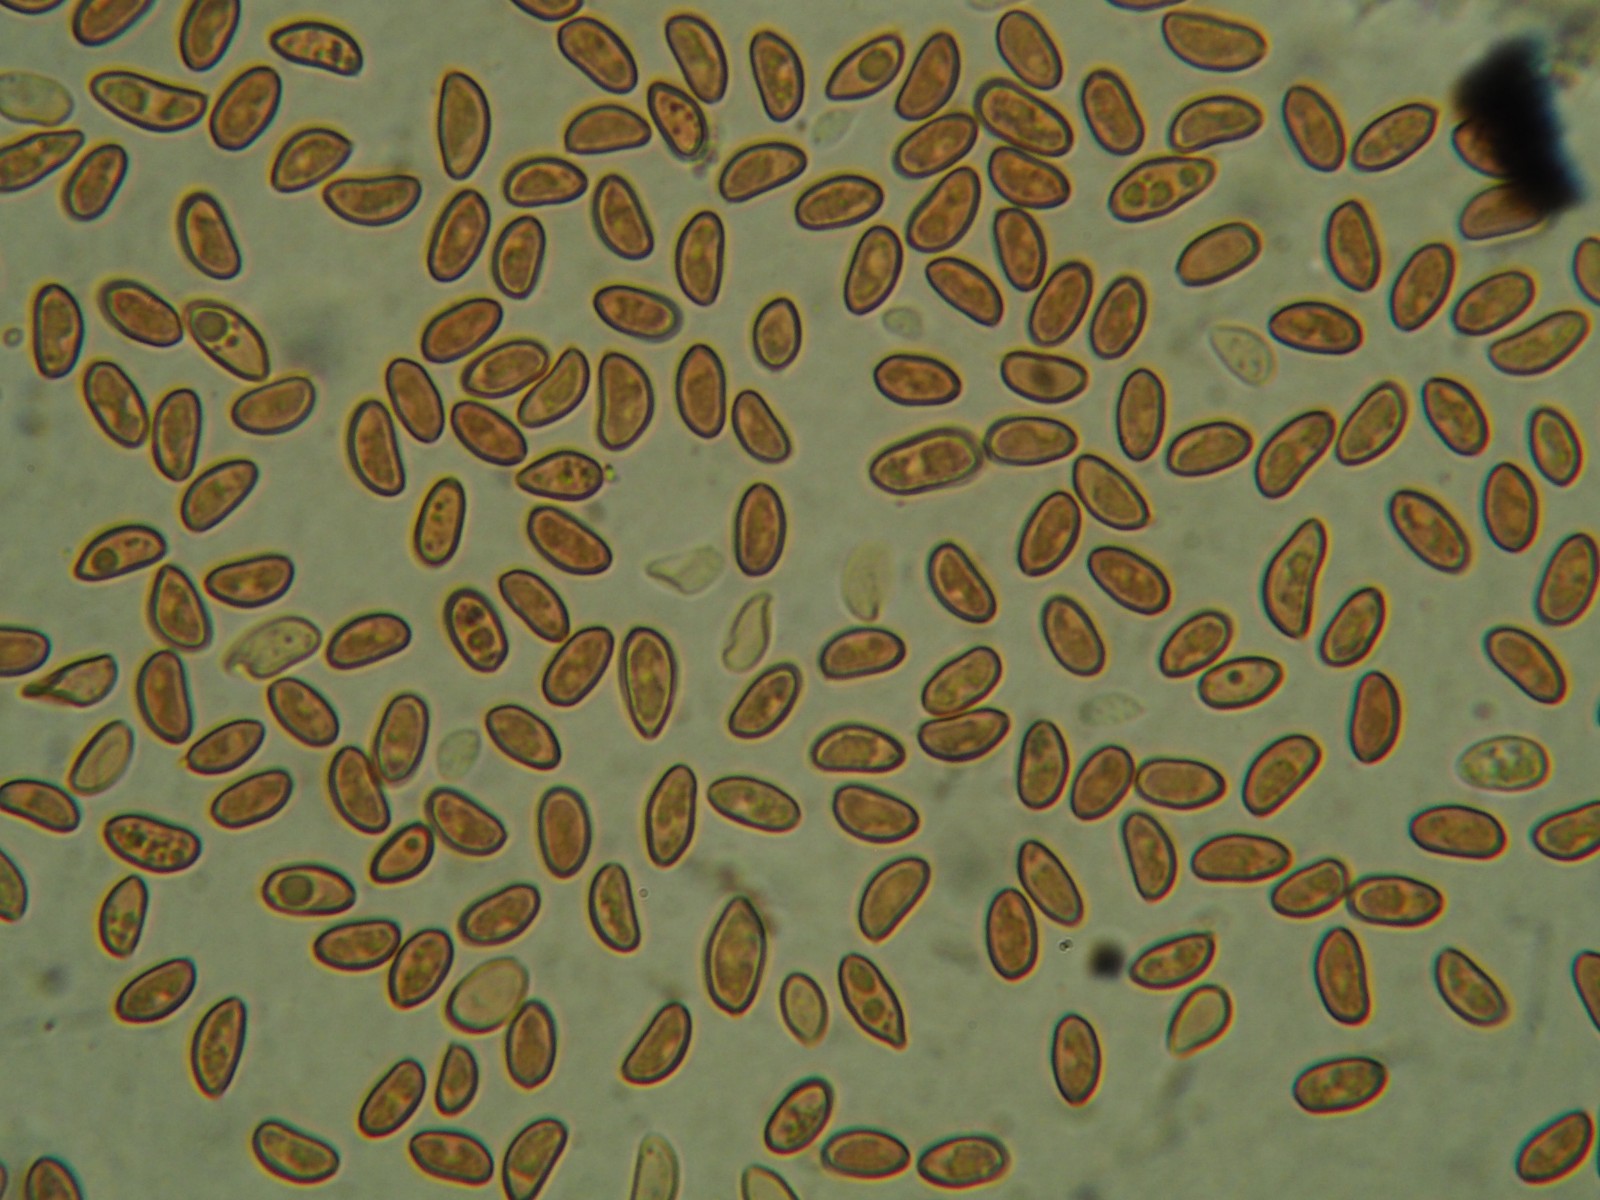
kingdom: Fungi
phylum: Basidiomycota
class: Agaricomycetes
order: Agaricales
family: Tubariaceae
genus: Flammulaster
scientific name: Flammulaster limulatus
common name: gylden grynskælhat
